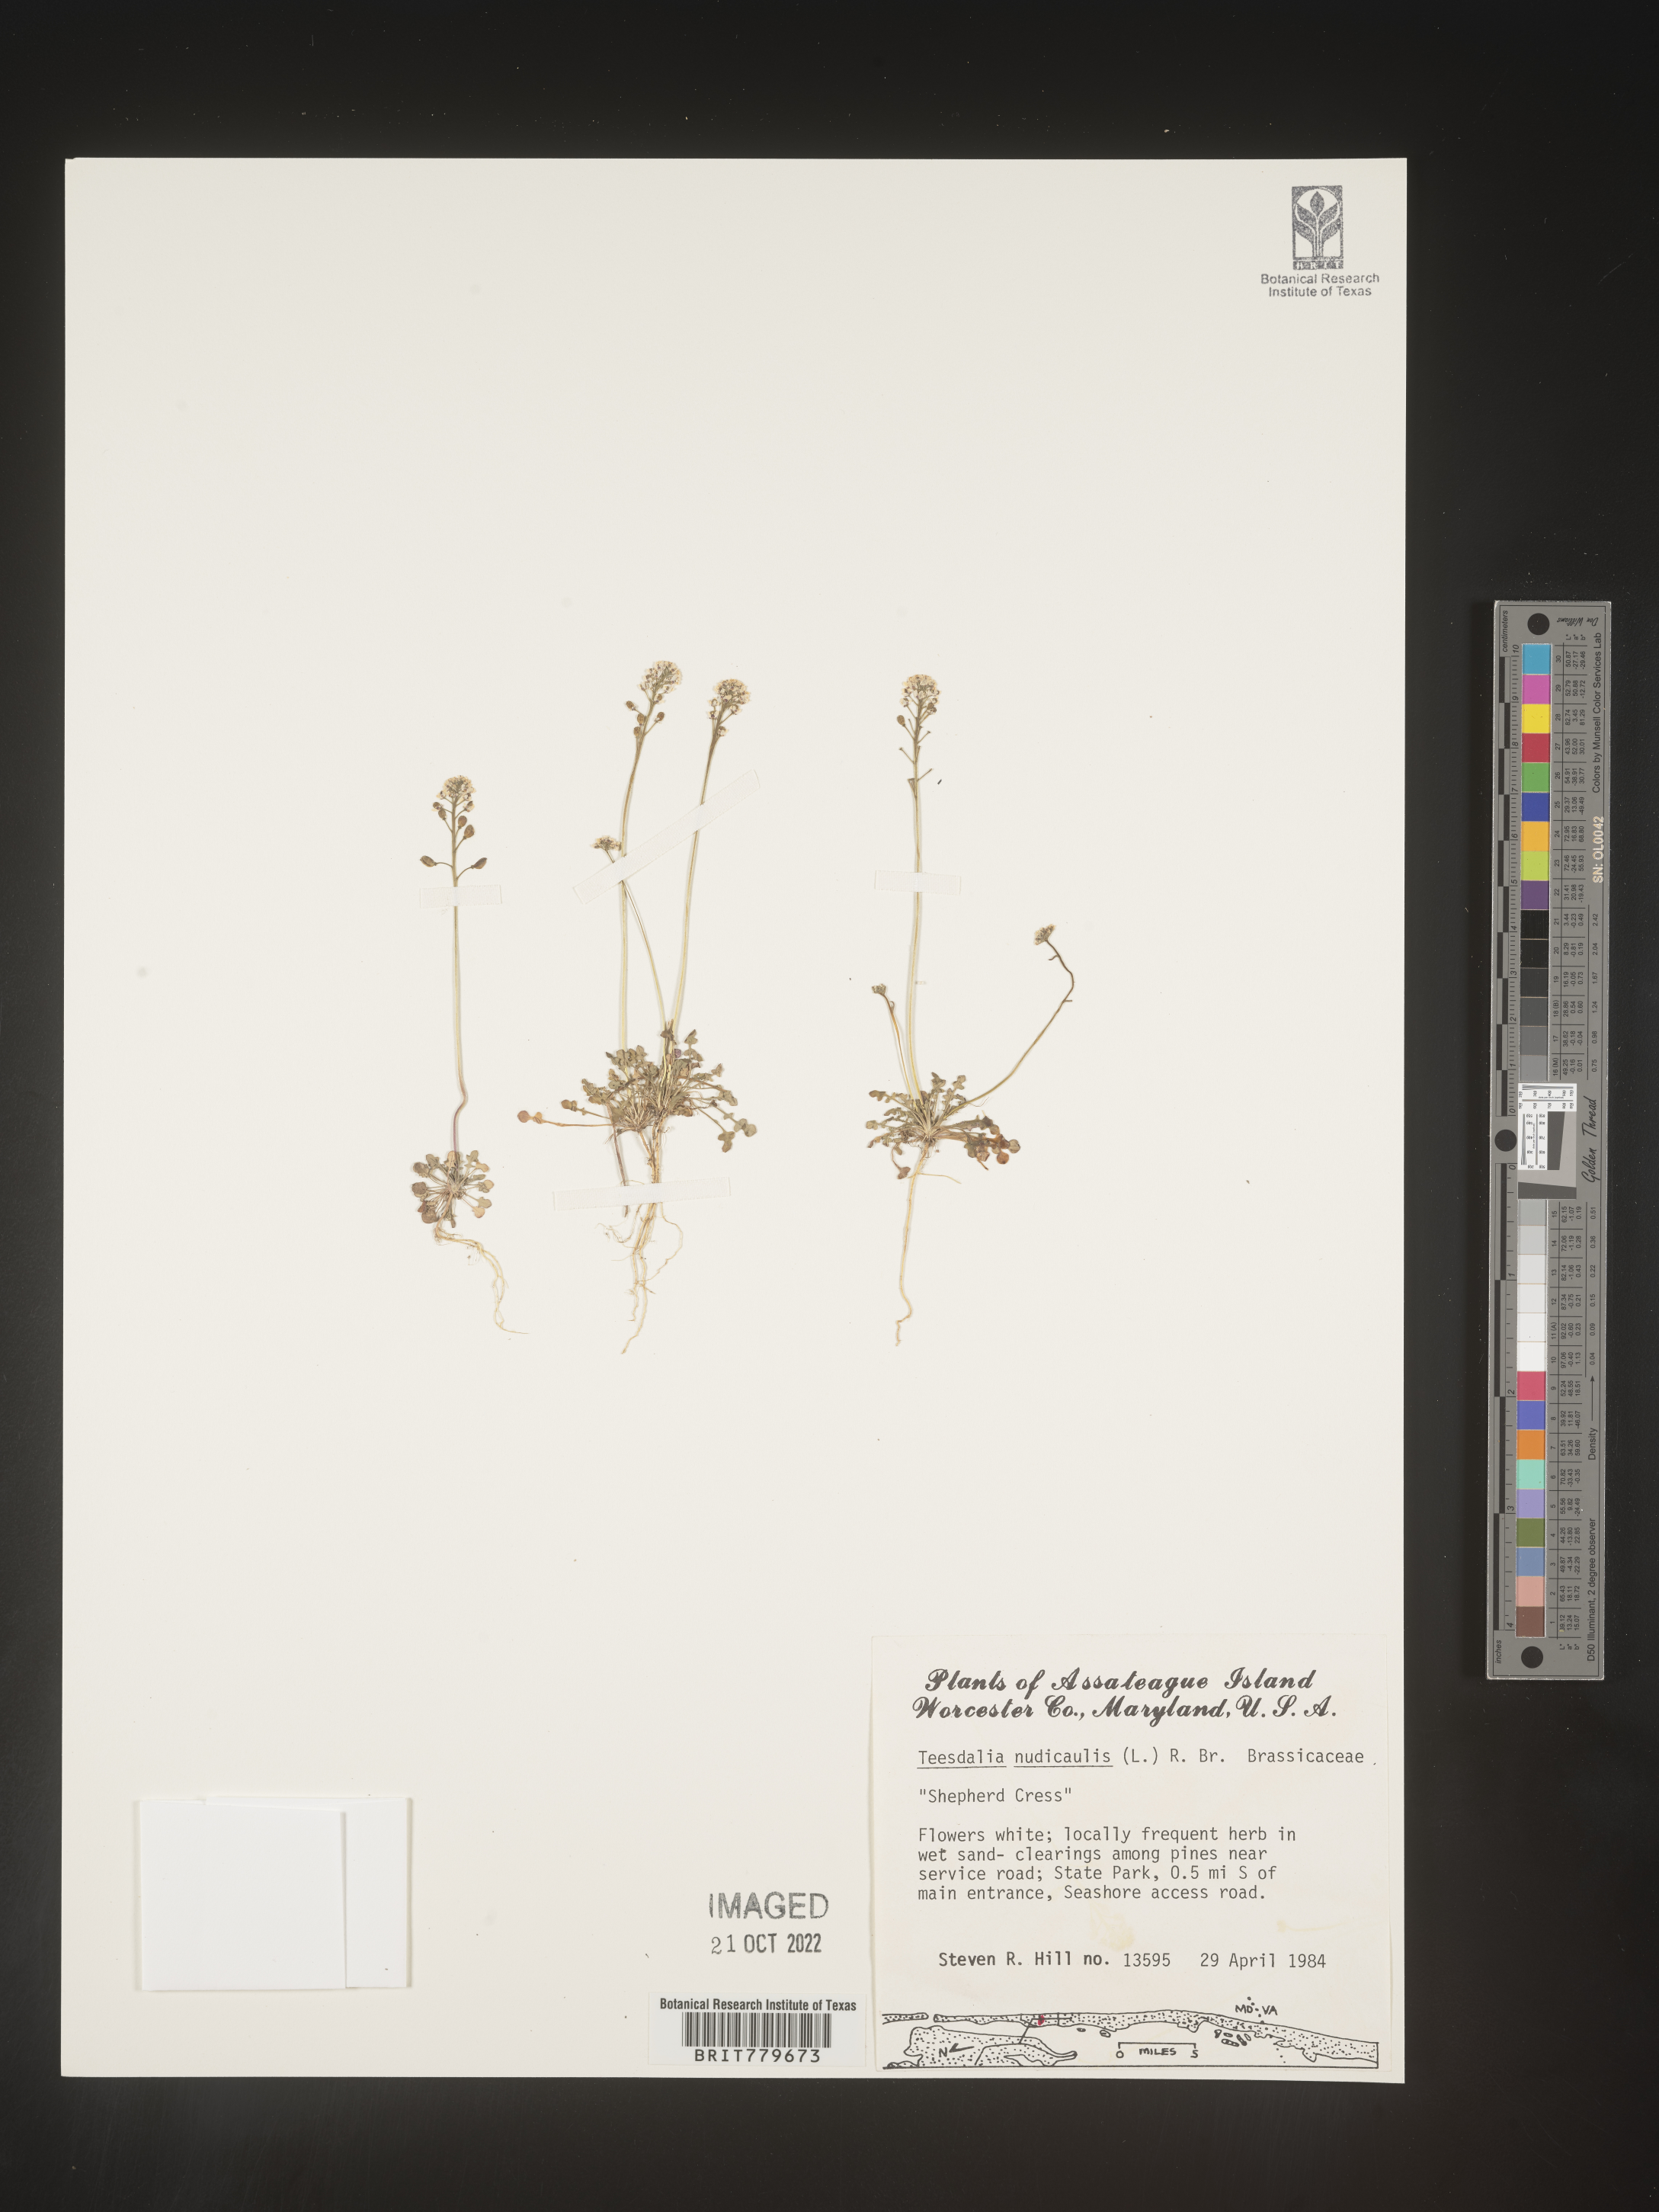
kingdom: Plantae
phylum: Tracheophyta
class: Magnoliopsida
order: Brassicales
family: Brassicaceae
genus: Teesdalia
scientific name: Teesdalia
